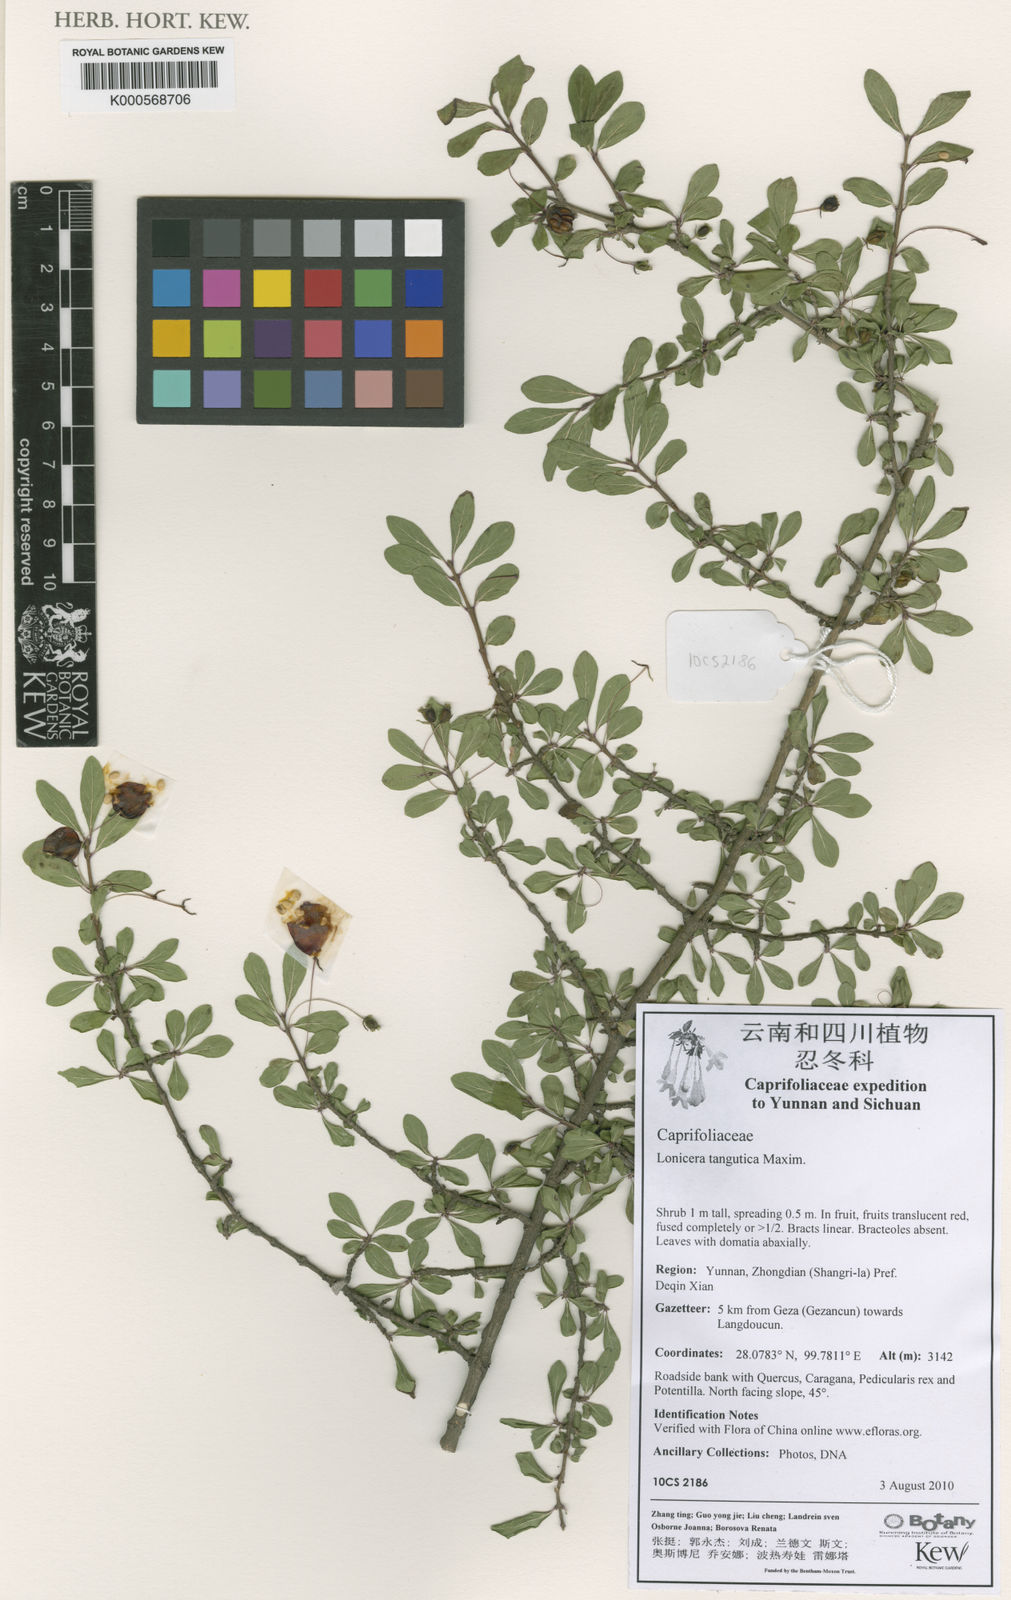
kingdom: Plantae
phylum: Tracheophyta
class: Magnoliopsida
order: Dipsacales
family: Caprifoliaceae
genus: Lonicera
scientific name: Lonicera tangutica
